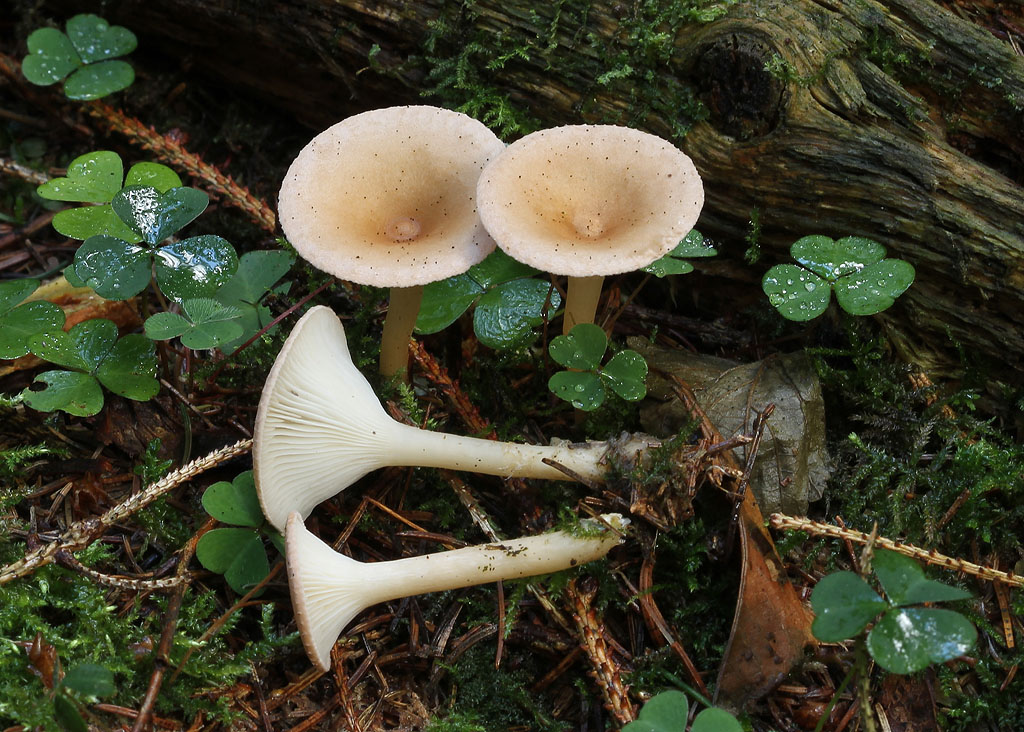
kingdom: Fungi
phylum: Basidiomycota
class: Agaricomycetes
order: Agaricales
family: Tricholomataceae
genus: Infundibulicybe
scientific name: Infundibulicybe gibba
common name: almindelig tragthat
